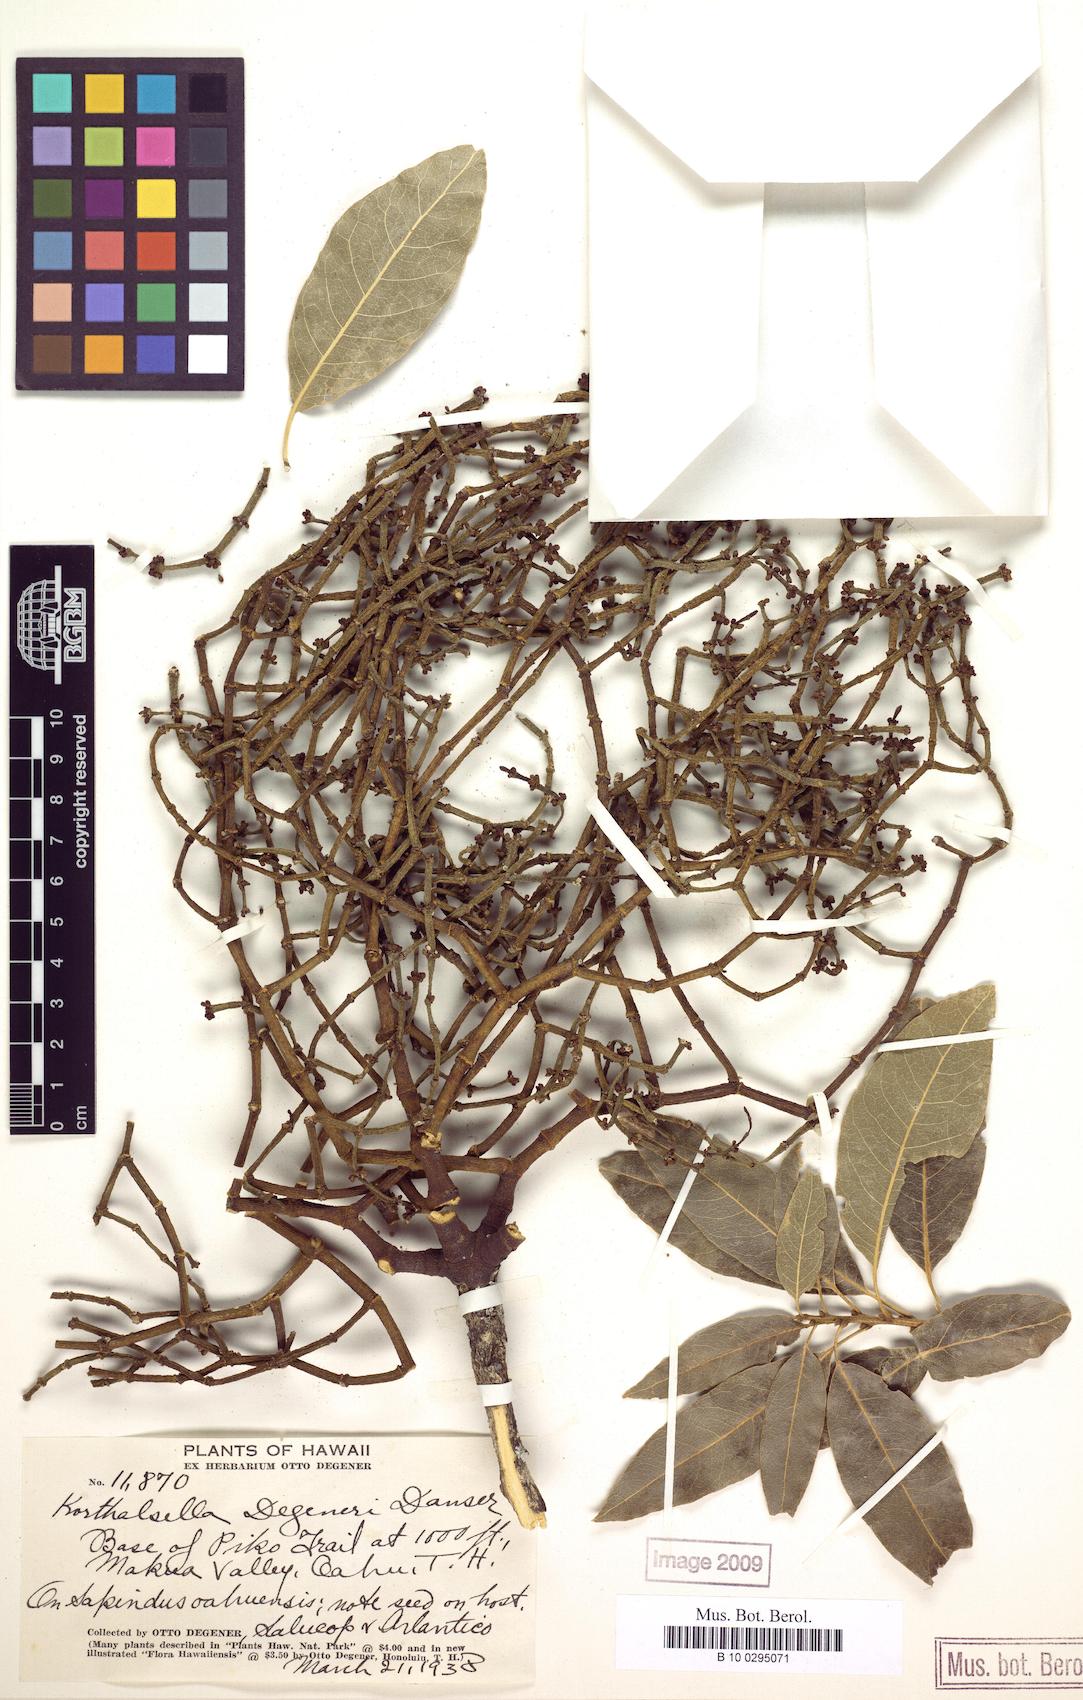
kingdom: Plantae
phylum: Tracheophyta
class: Magnoliopsida
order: Santalales
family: Viscaceae
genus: Korthalsella
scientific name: Korthalsella degeneri
